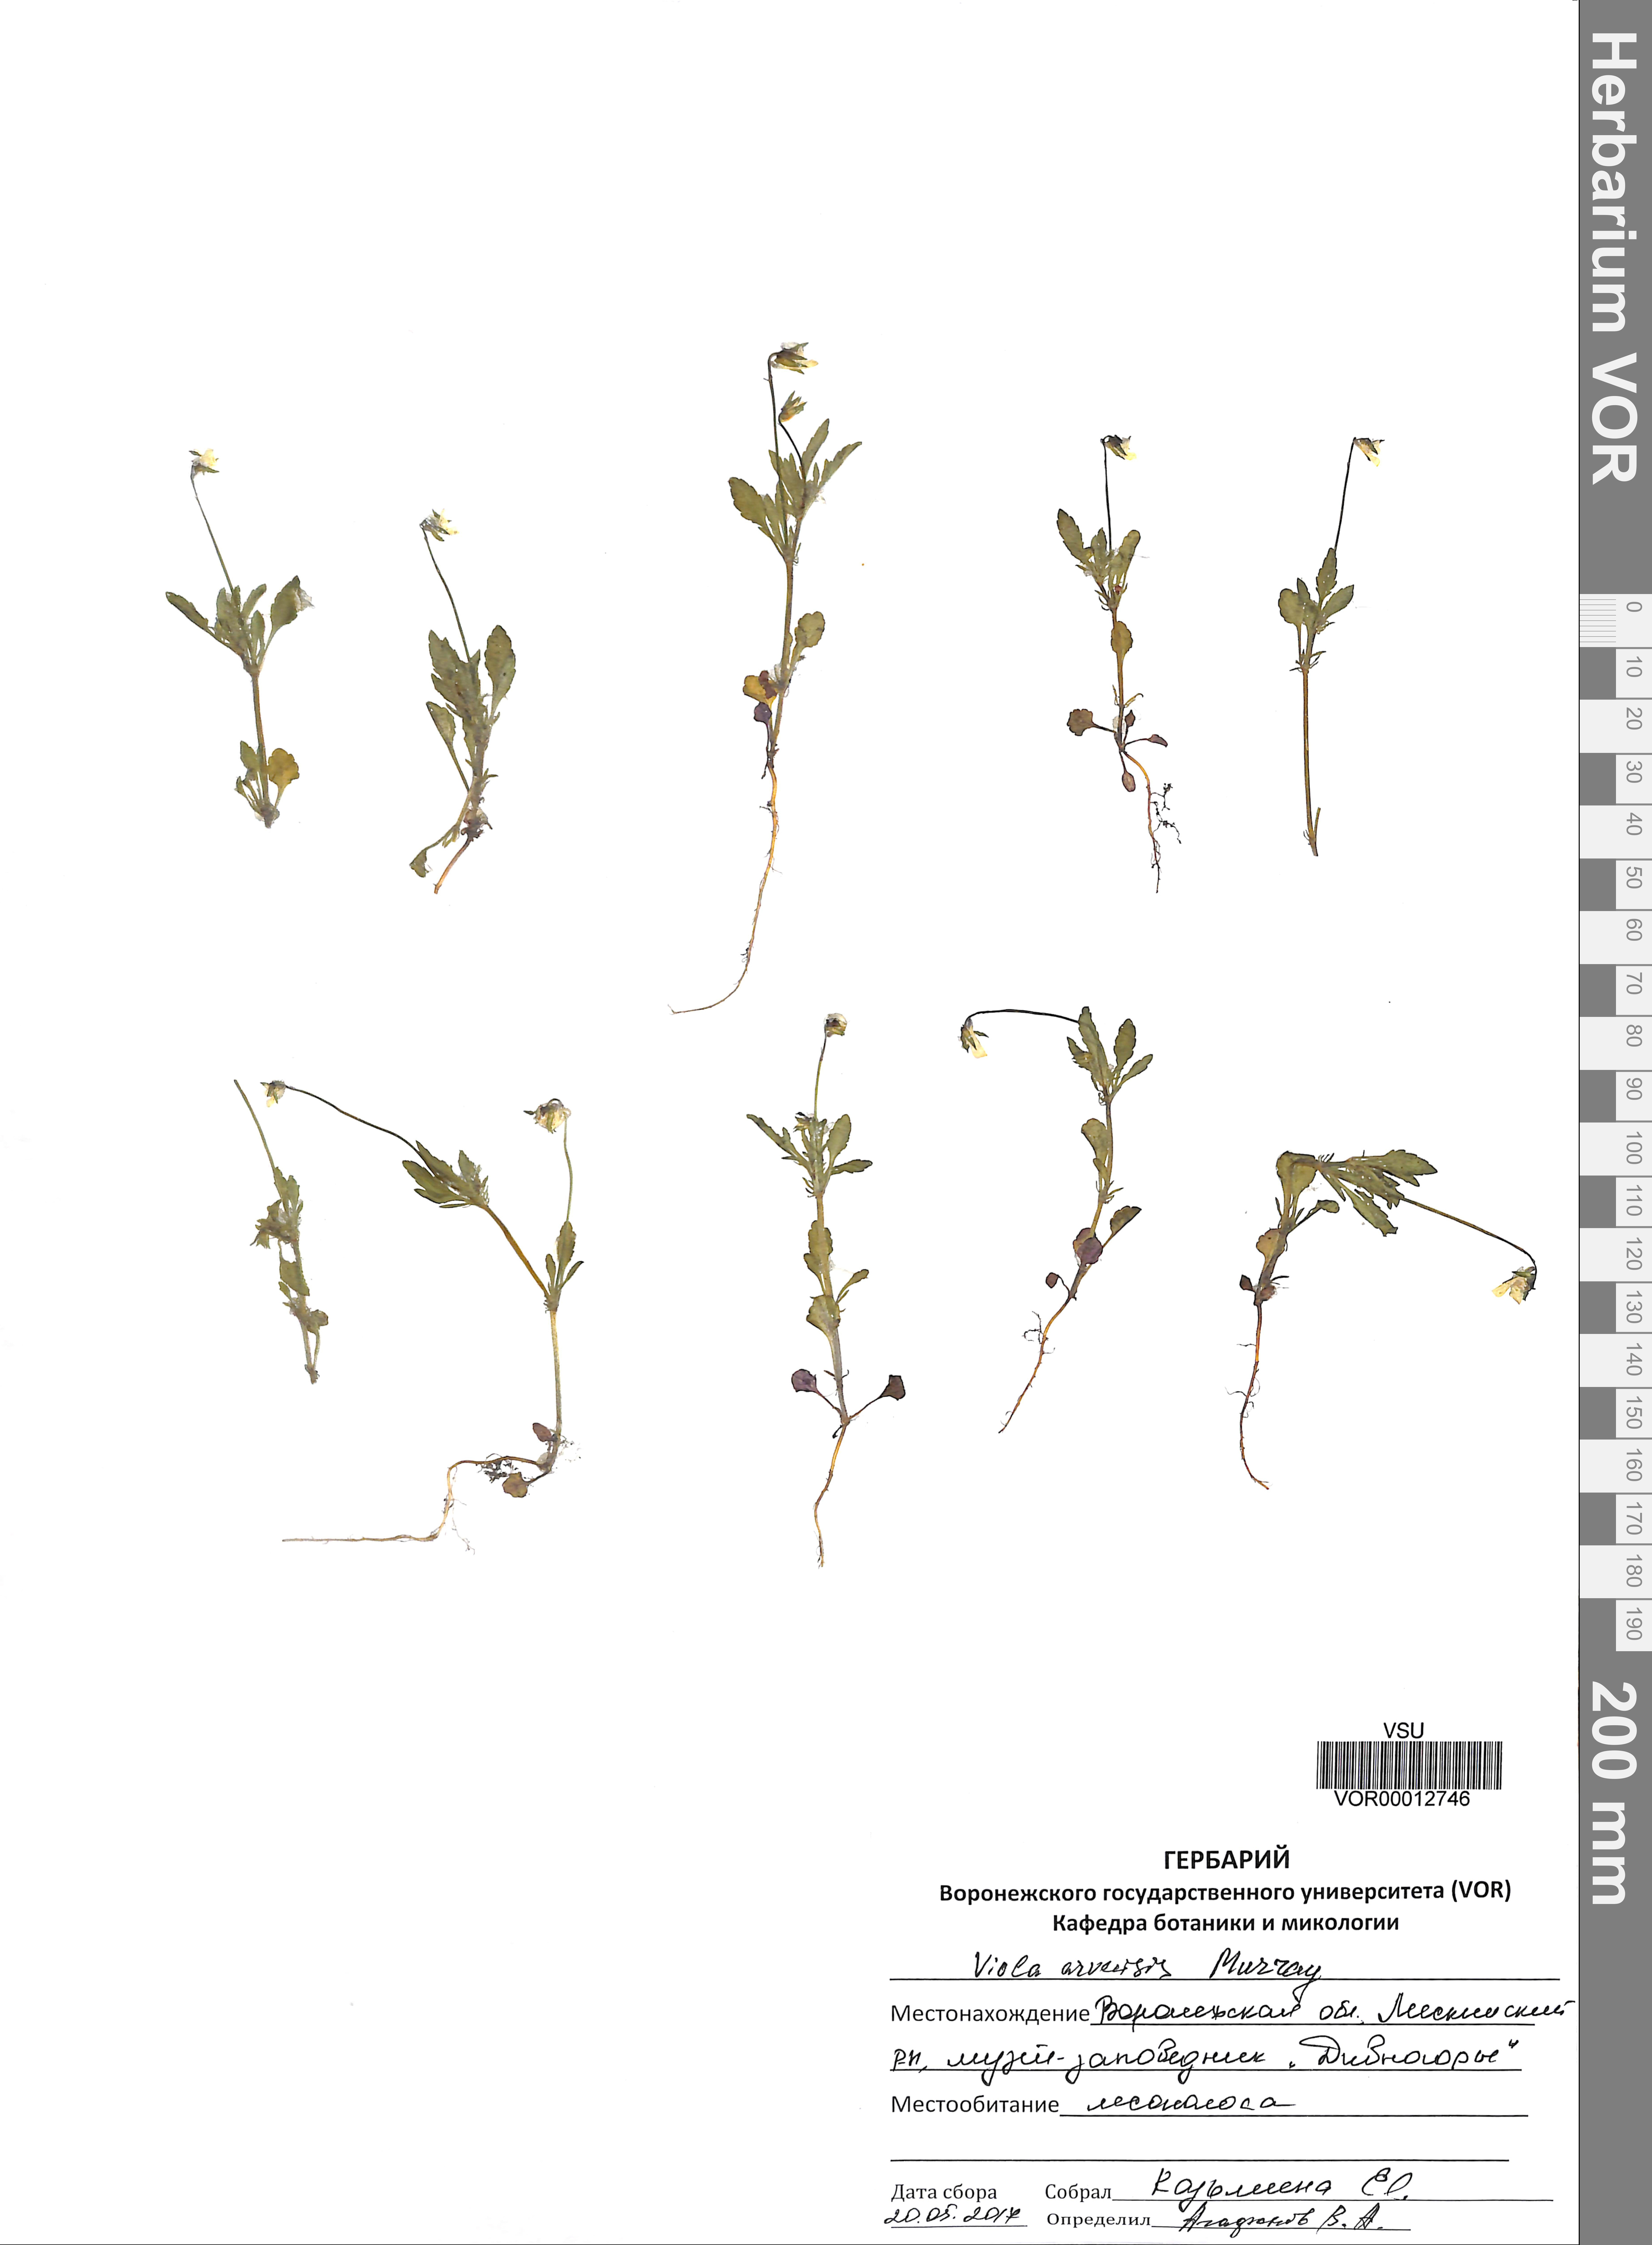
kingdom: Plantae
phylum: Tracheophyta
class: Magnoliopsida
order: Malpighiales
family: Violaceae
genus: Viola
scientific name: Viola arvensis
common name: Field pansy
